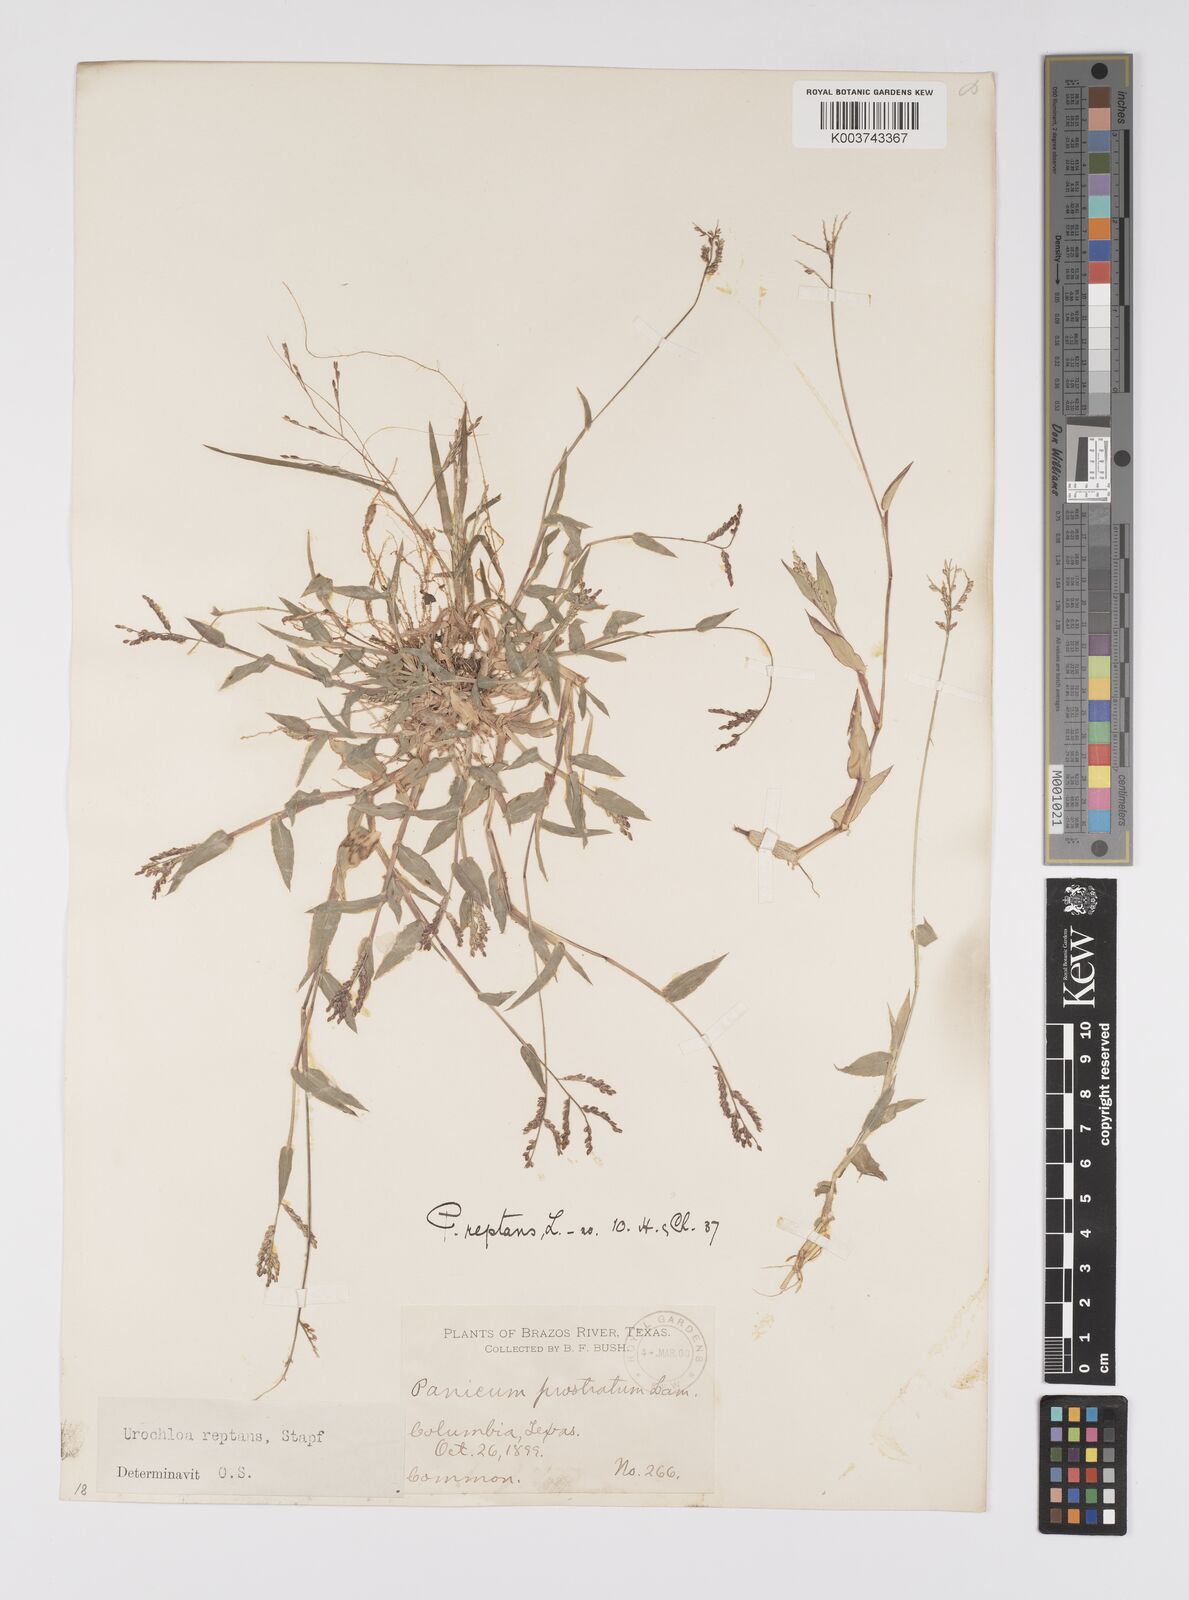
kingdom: Plantae
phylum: Tracheophyta
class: Liliopsida
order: Poales
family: Poaceae
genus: Urochloa
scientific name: Urochloa reptans
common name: Sprawling signalgrass
